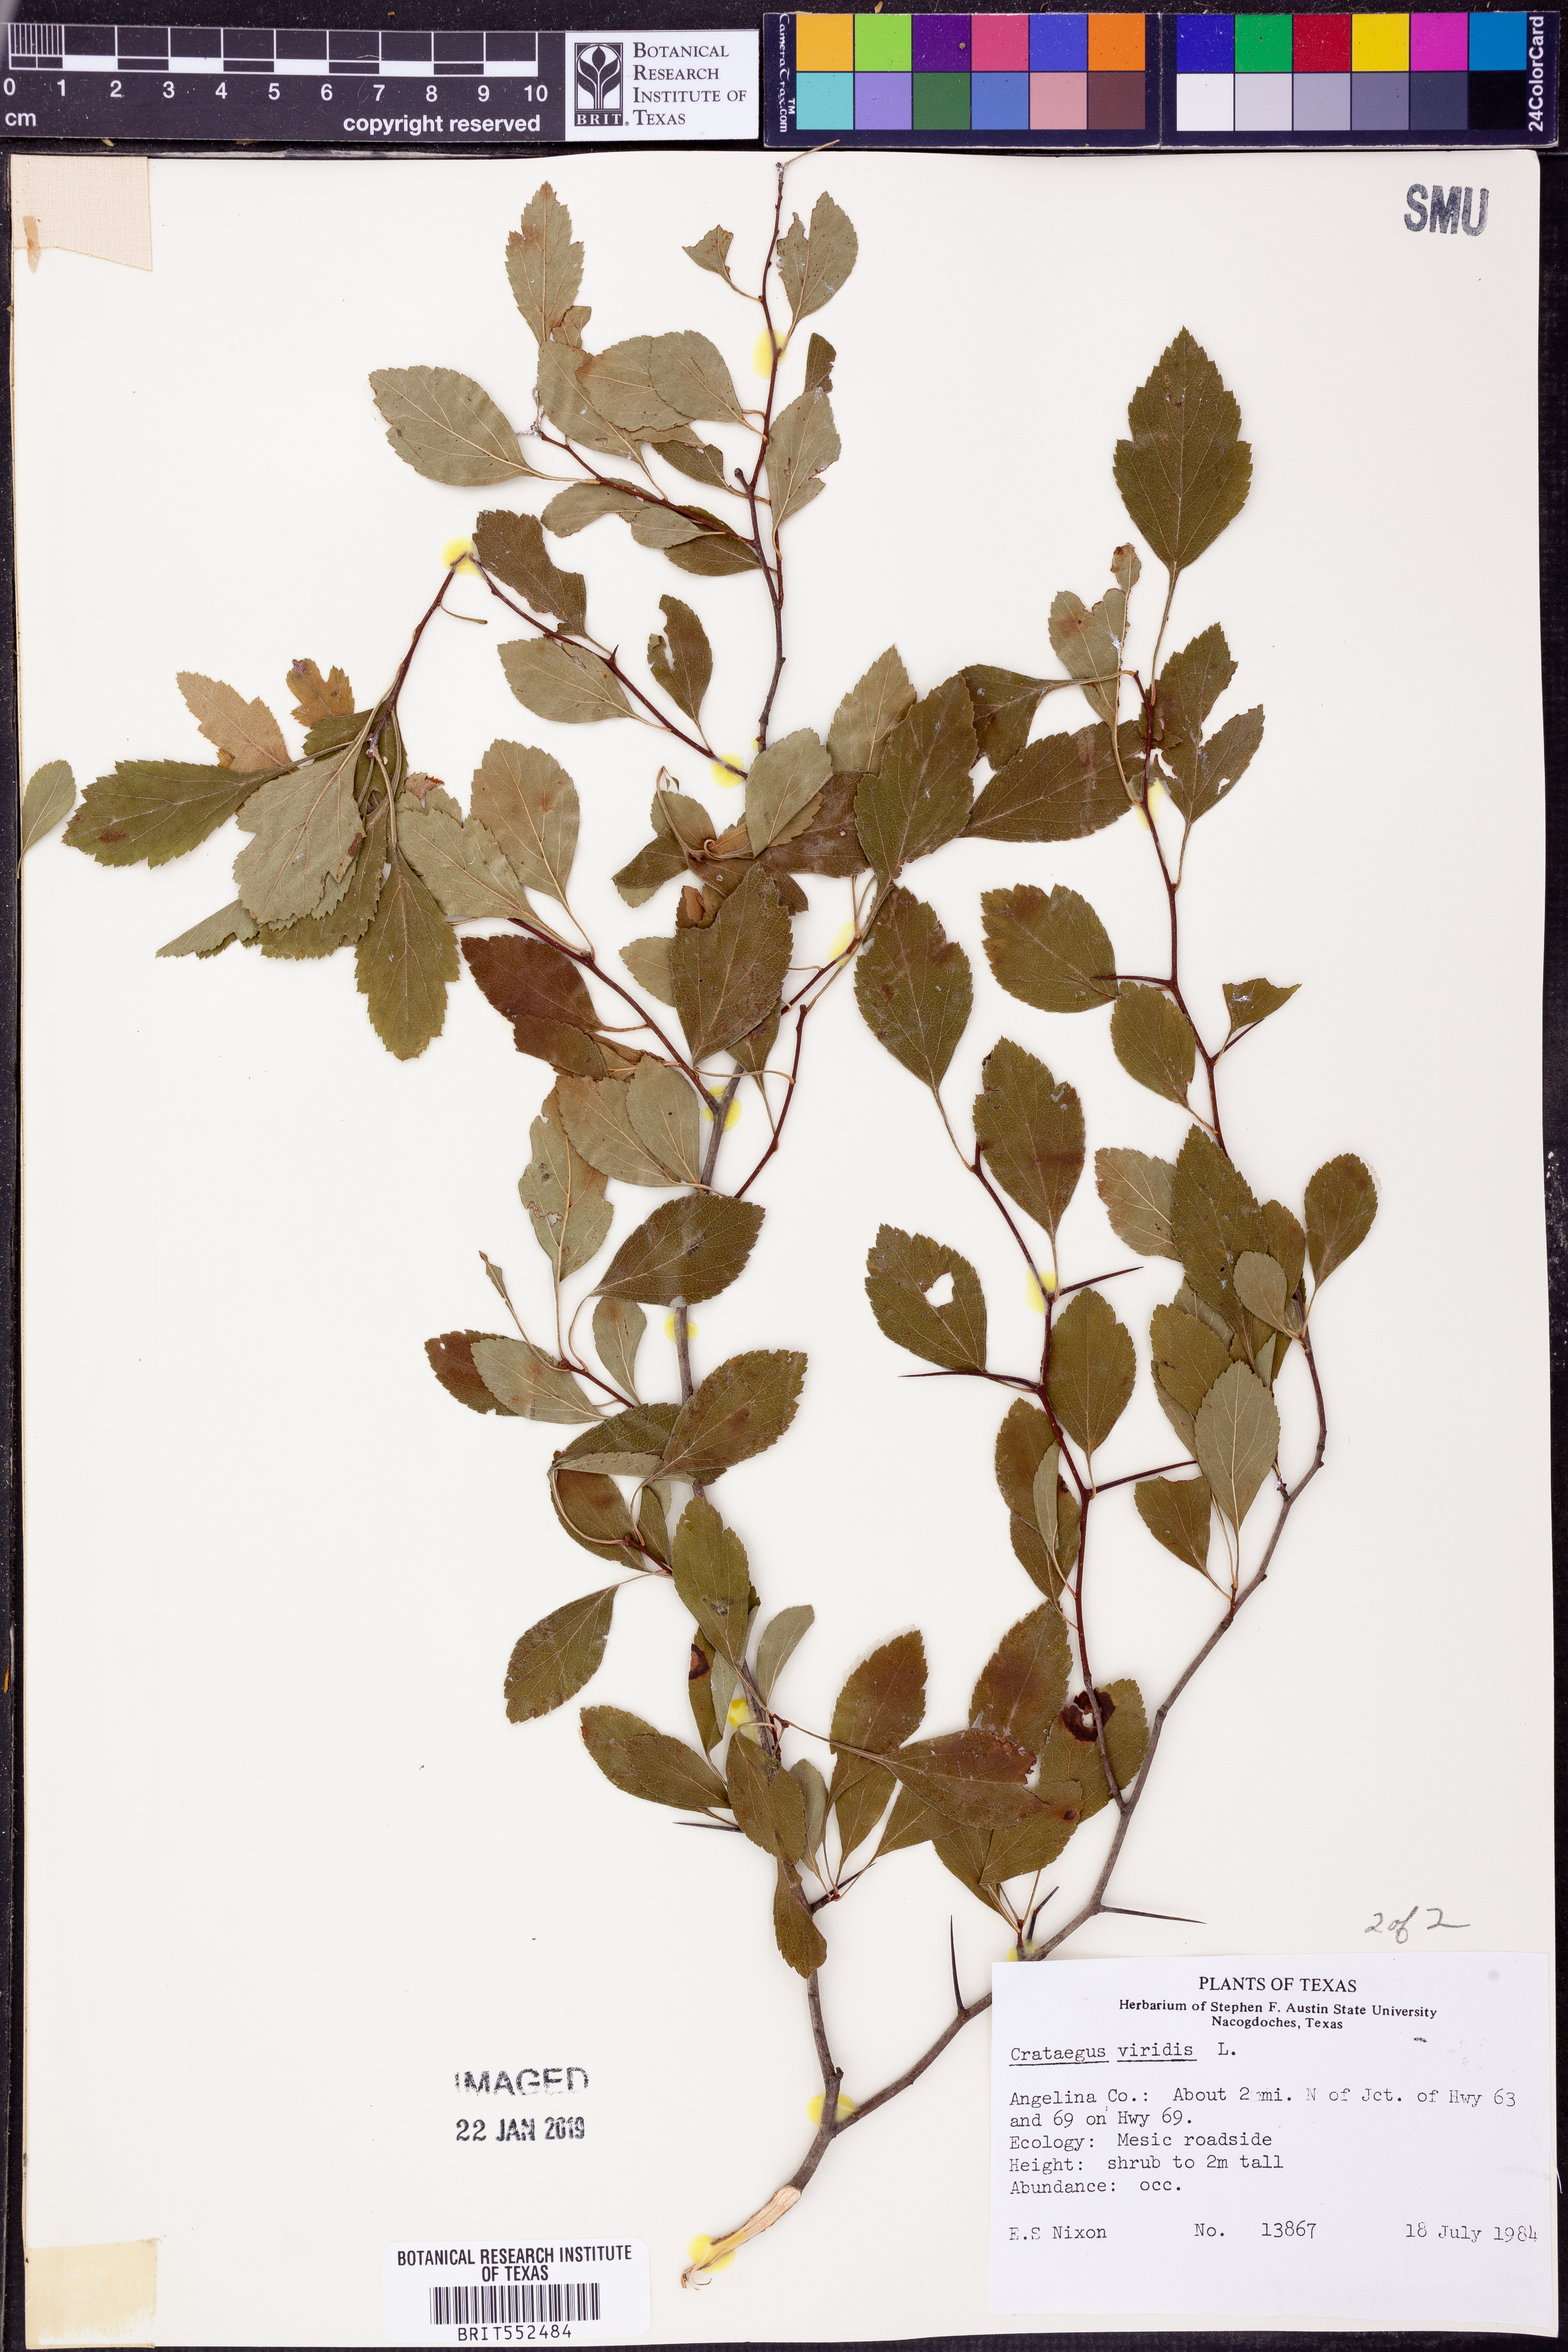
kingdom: Plantae
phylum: Tracheophyta
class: Magnoliopsida
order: Rosales
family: Rosaceae
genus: Crataegus
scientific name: Crataegus viridis
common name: Southernthorn
